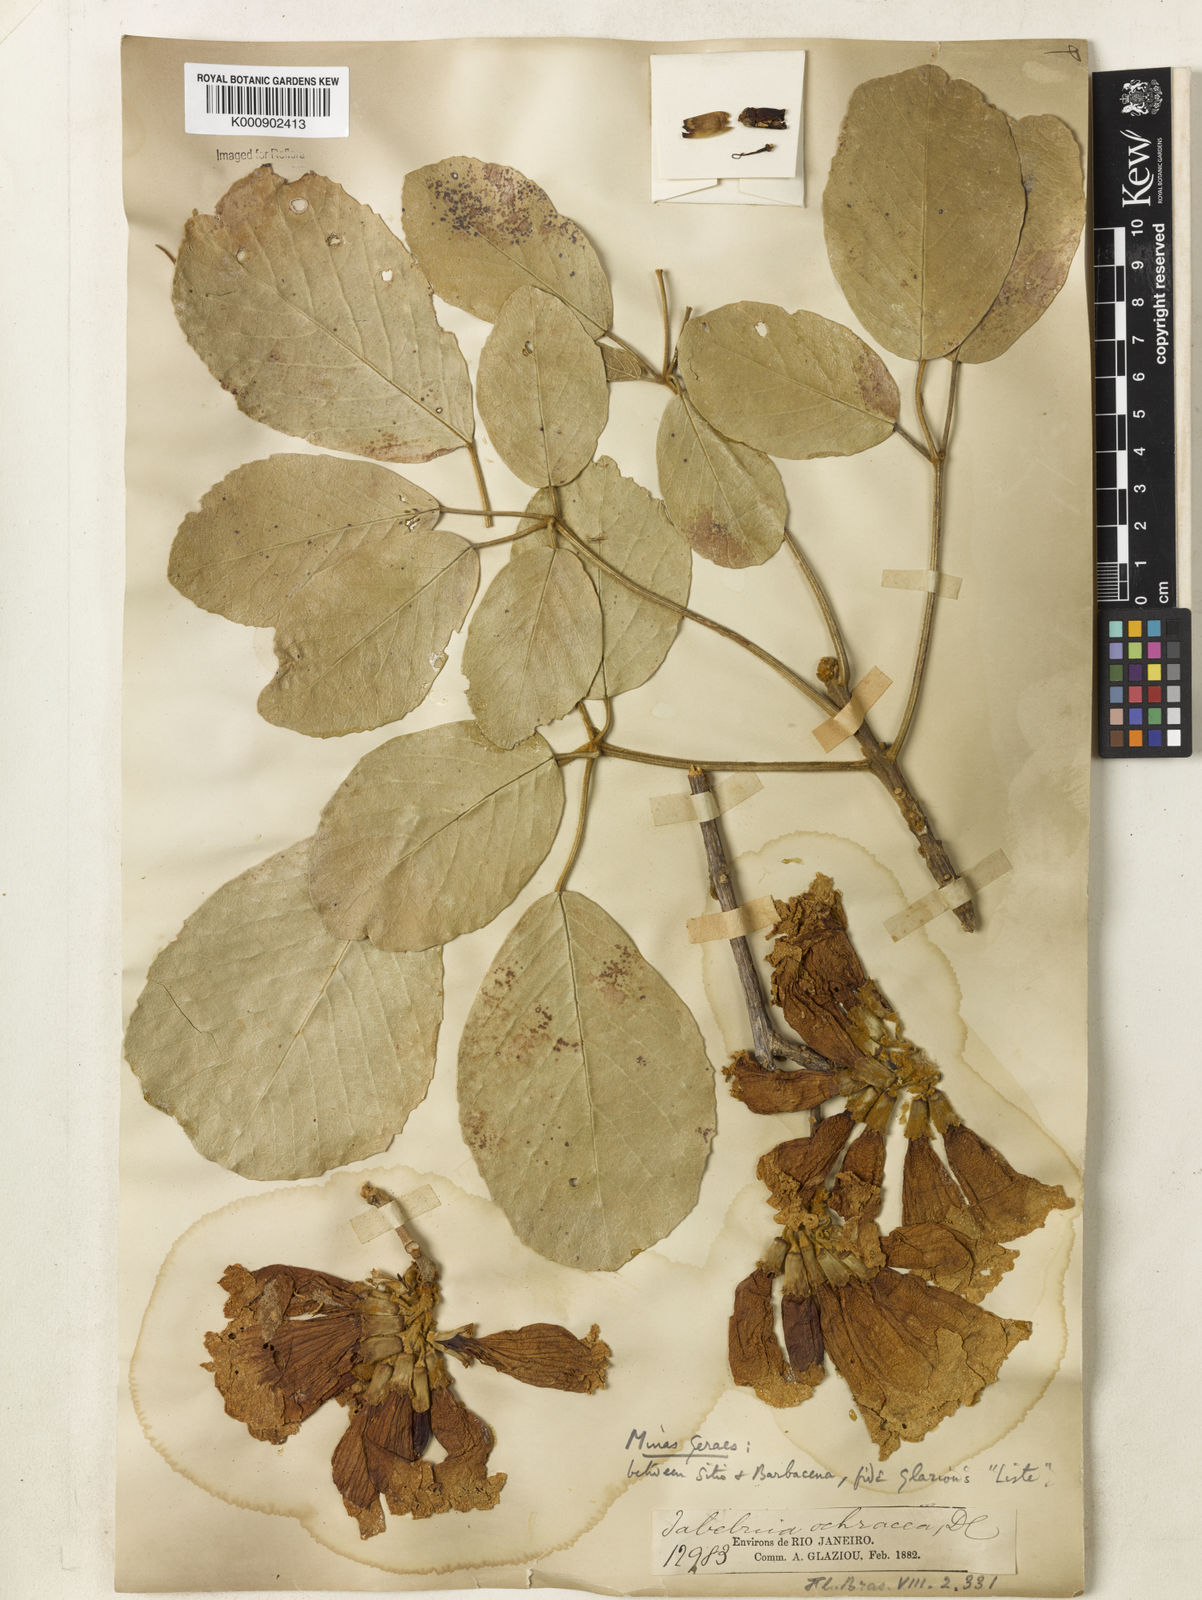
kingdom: Plantae
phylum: Tracheophyta
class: Magnoliopsida
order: Lamiales
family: Bignoniaceae
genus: Handroanthus
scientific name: Handroanthus ochraceus
